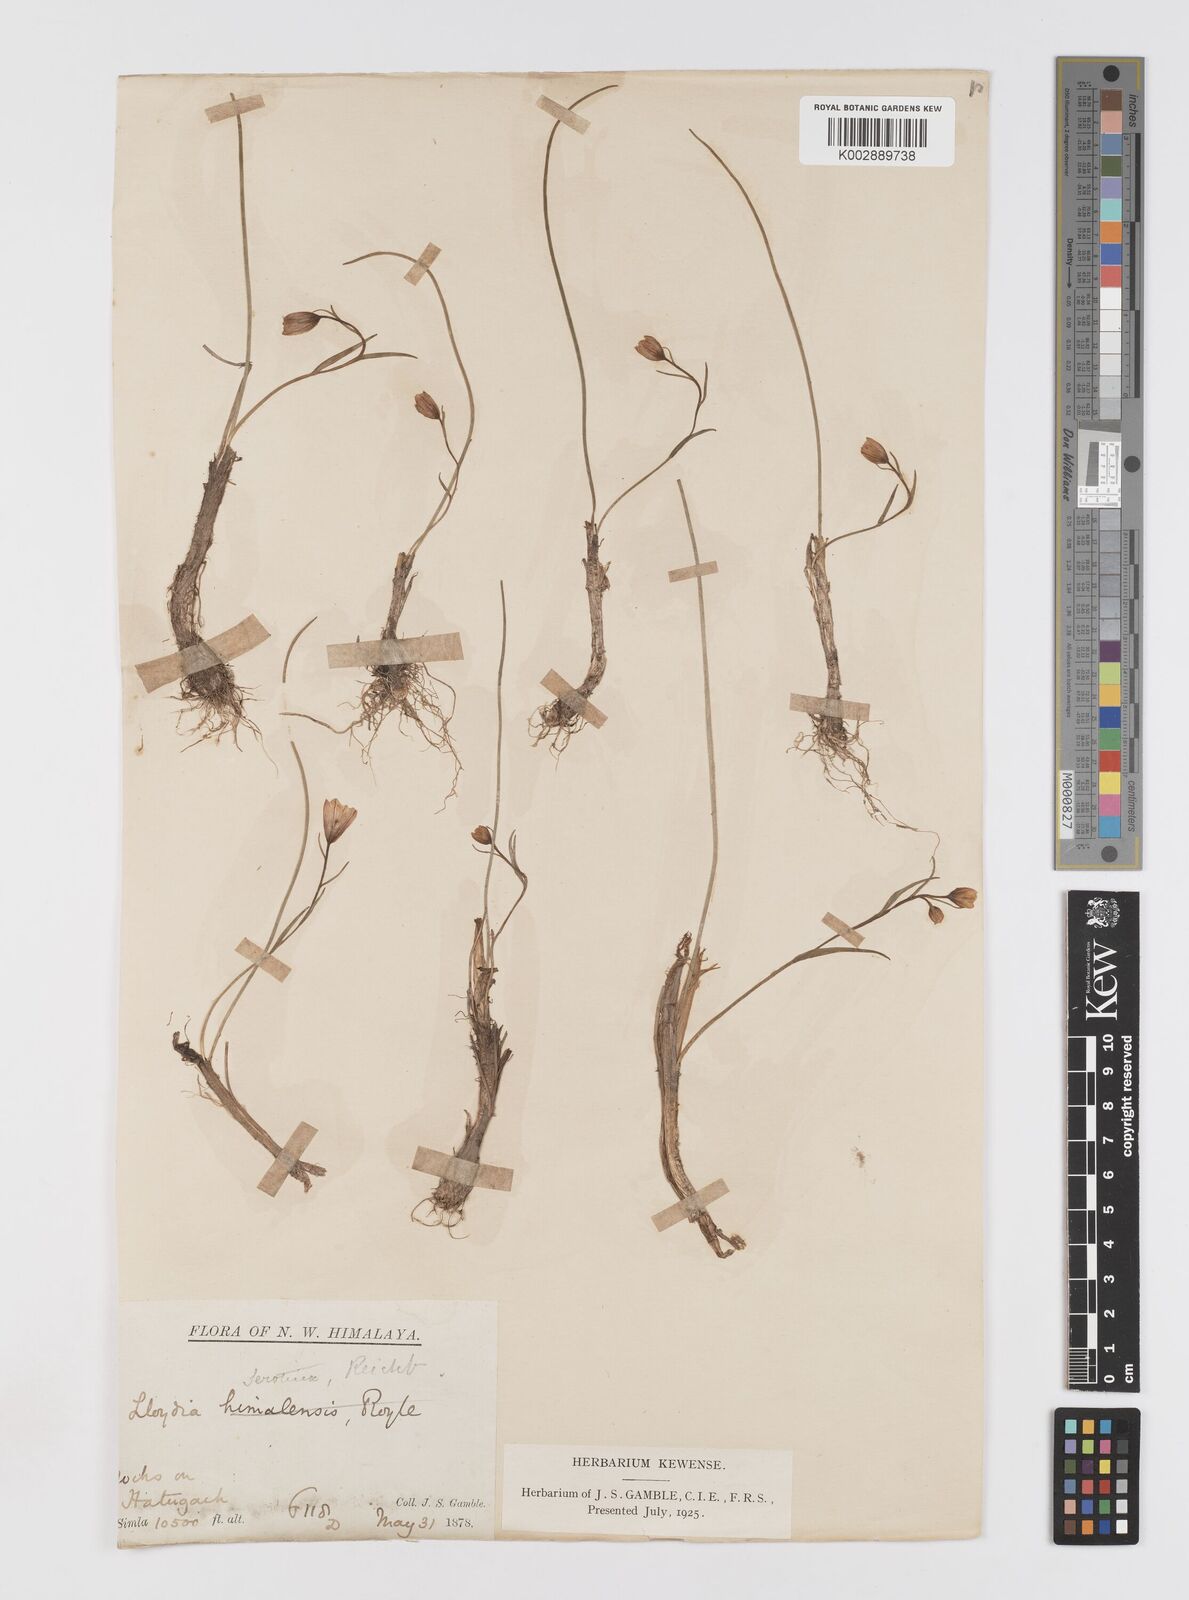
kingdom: Plantae
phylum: Tracheophyta
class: Liliopsida
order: Liliales
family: Liliaceae
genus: Gagea
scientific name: Gagea serotina
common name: Snowdon lily
